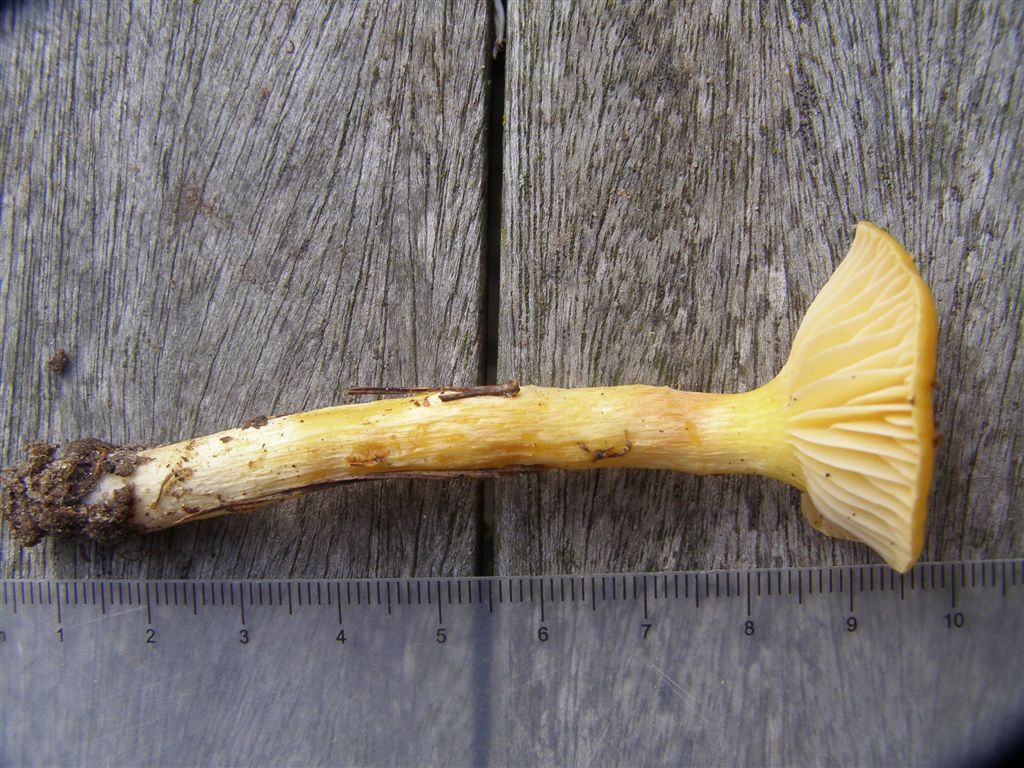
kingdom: Fungi
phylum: Basidiomycota
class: Agaricomycetes
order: Agaricales
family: Hygrophoraceae
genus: Hygrophorus
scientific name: Hygrophorus hypothejus
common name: gylden sneglehat
